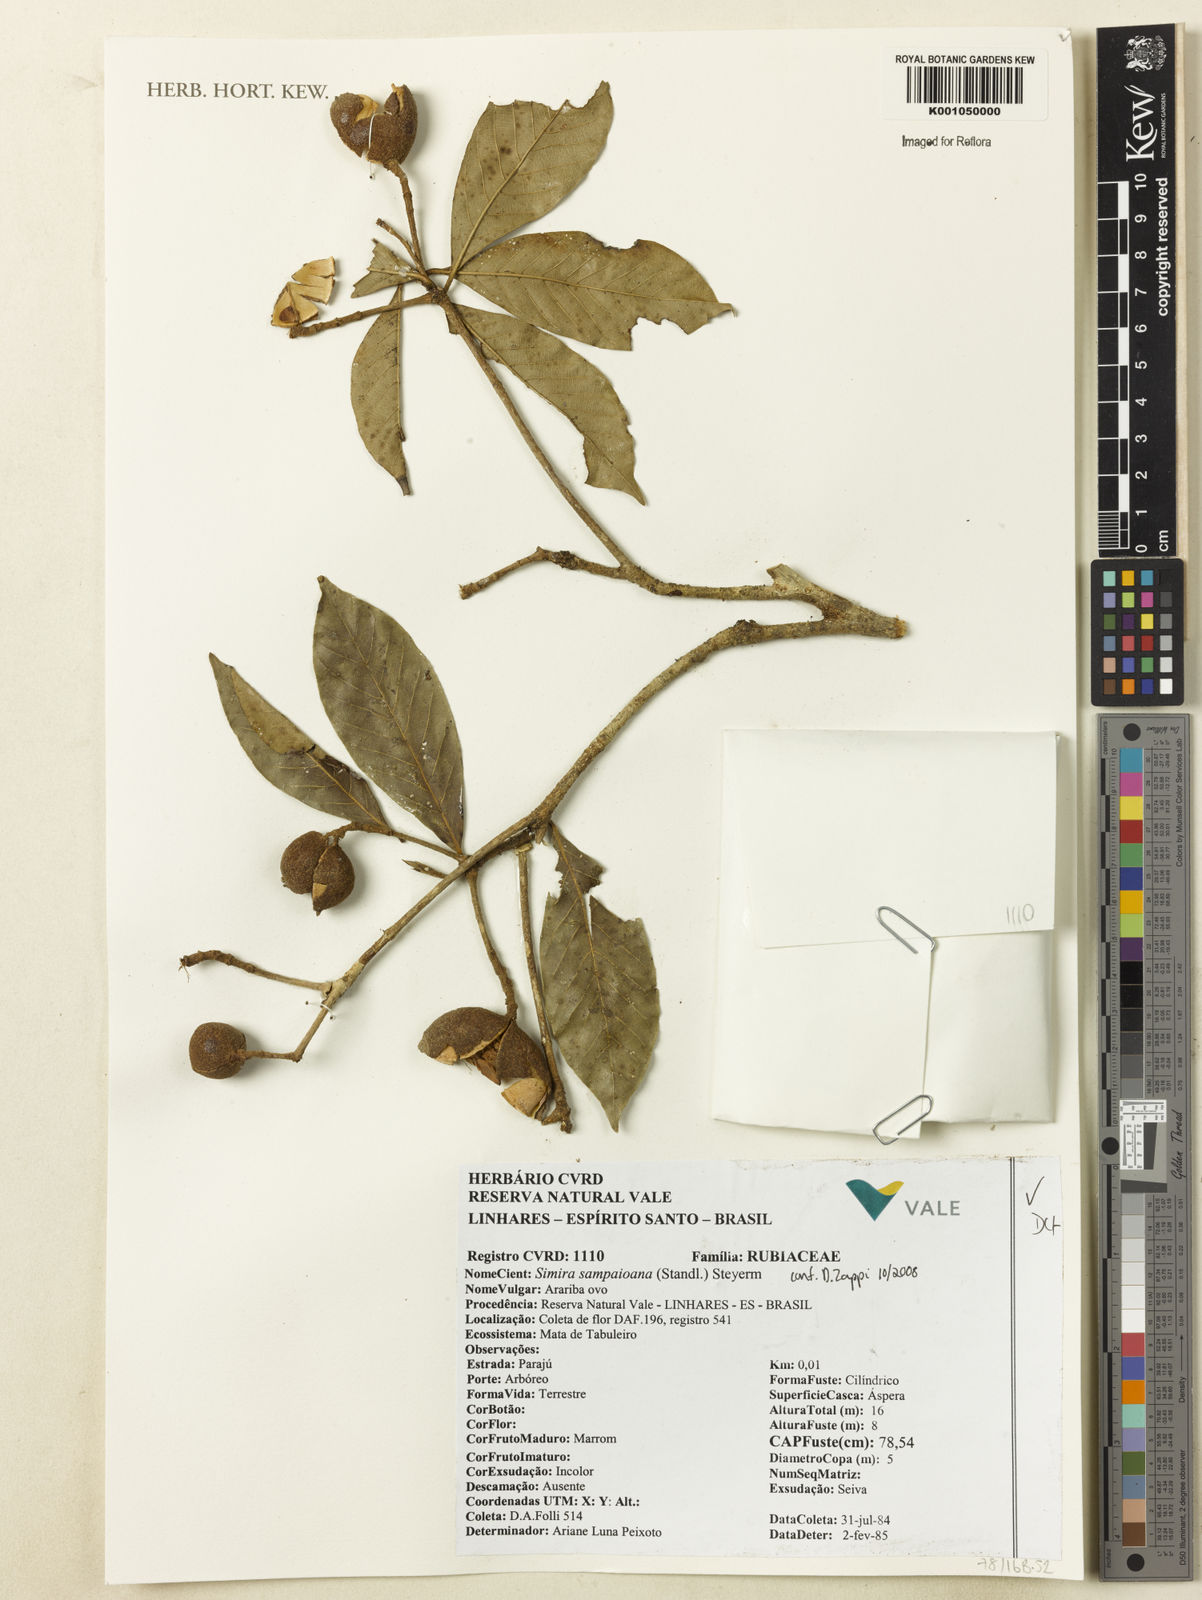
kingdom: Plantae
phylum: Tracheophyta
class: Magnoliopsida
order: Gentianales
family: Rubiaceae
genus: Simira
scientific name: Simira sampaioana
